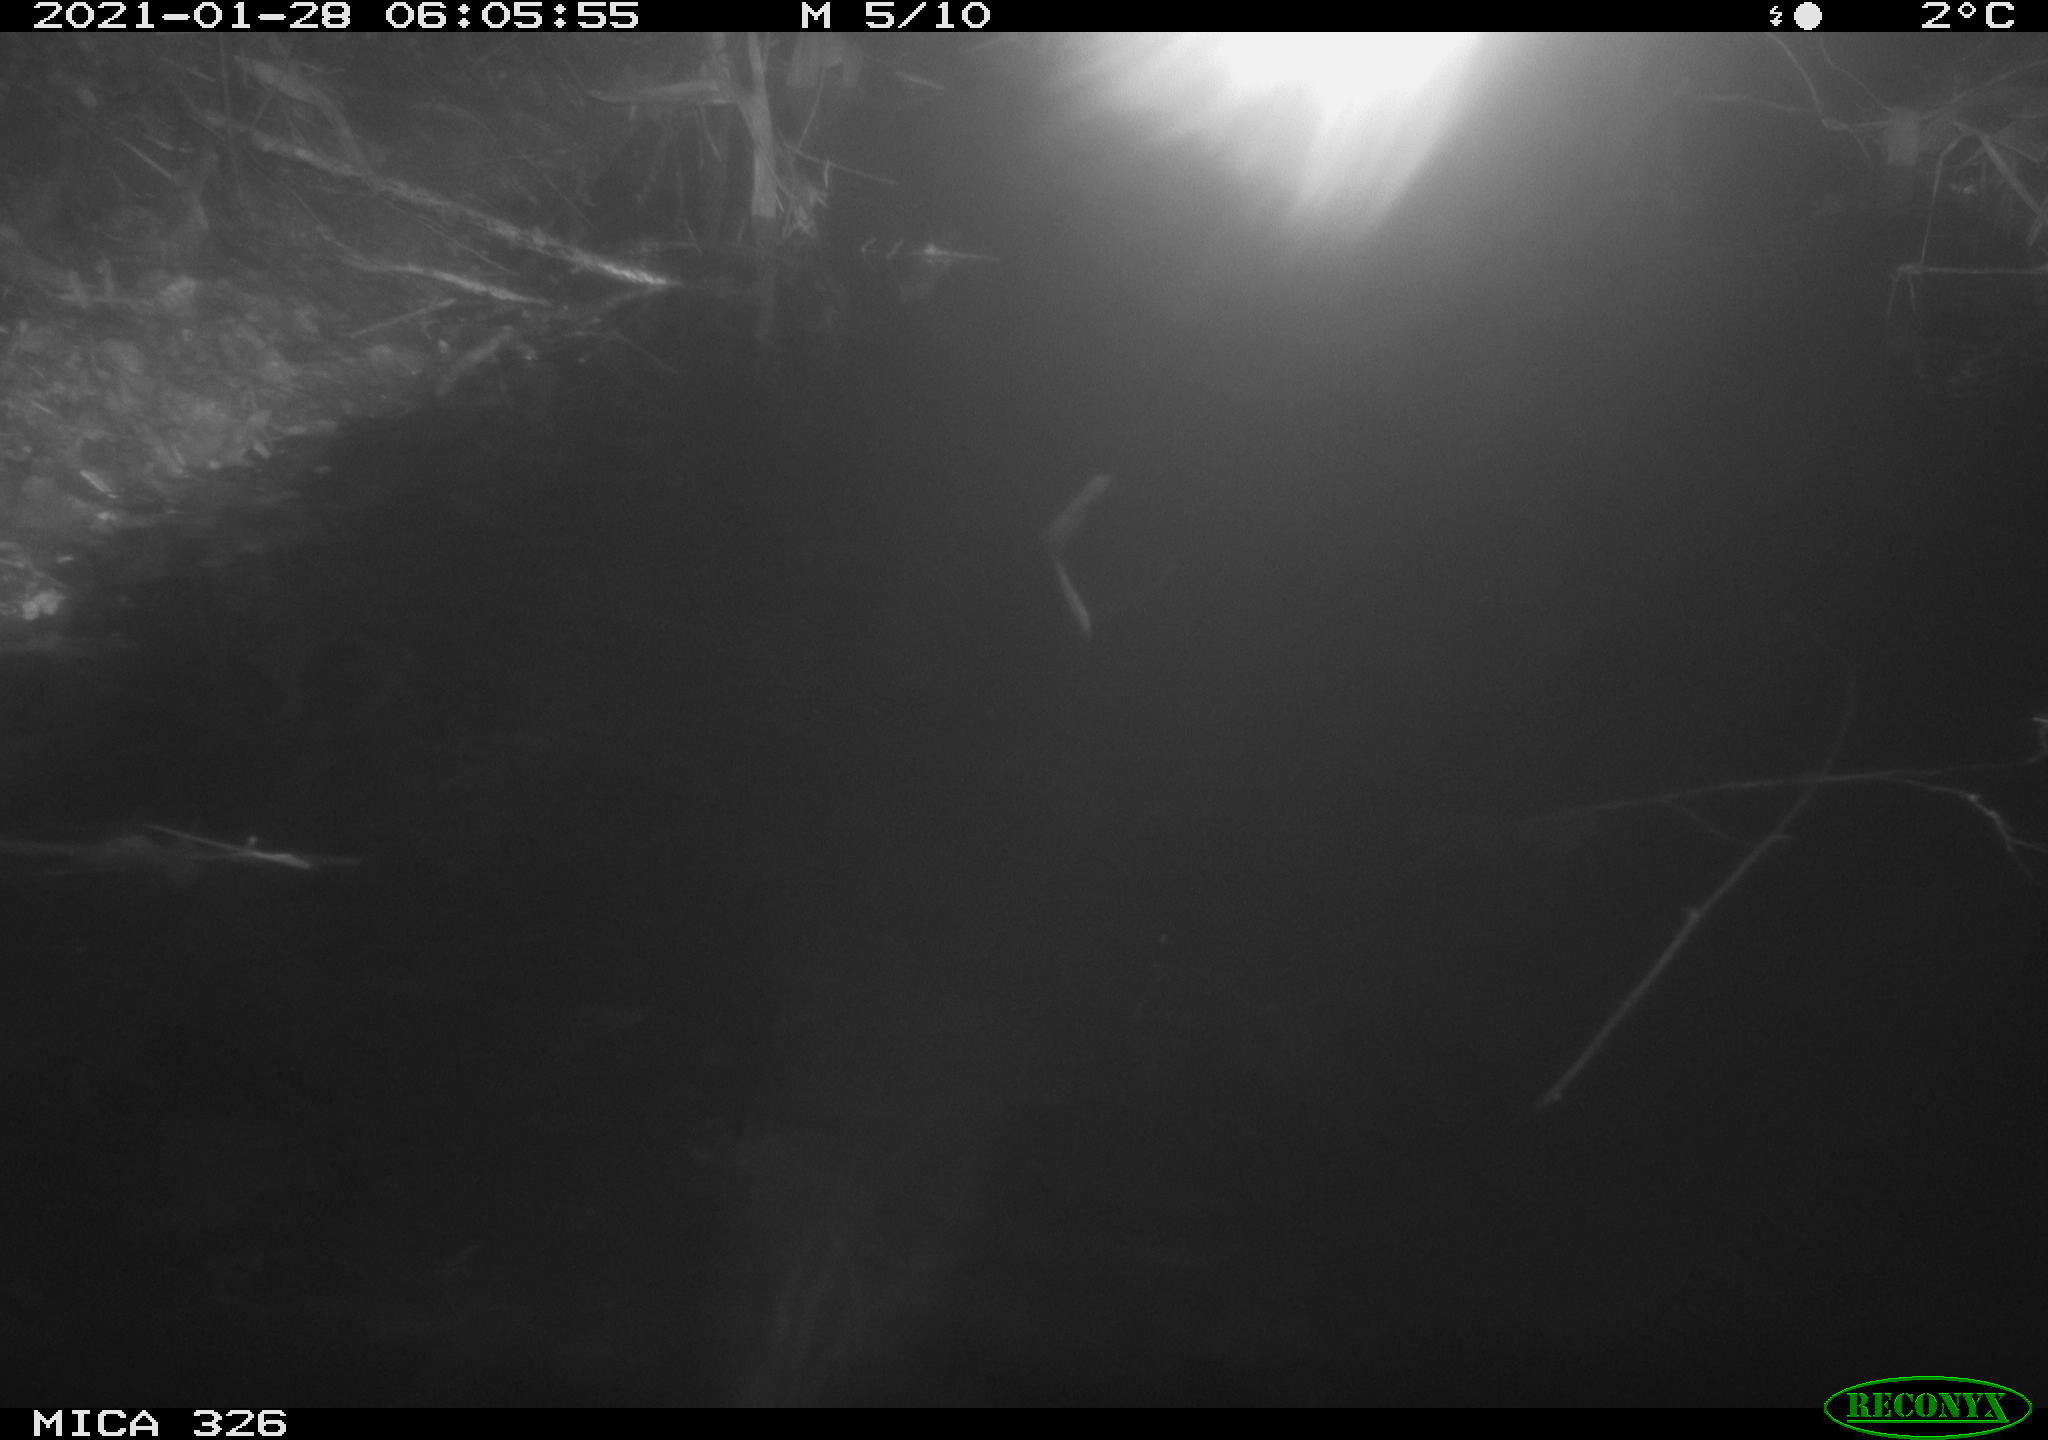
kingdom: Animalia
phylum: Chordata
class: Mammalia
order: Rodentia
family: Myocastoridae
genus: Myocastor
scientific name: Myocastor coypus
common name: Coypu
